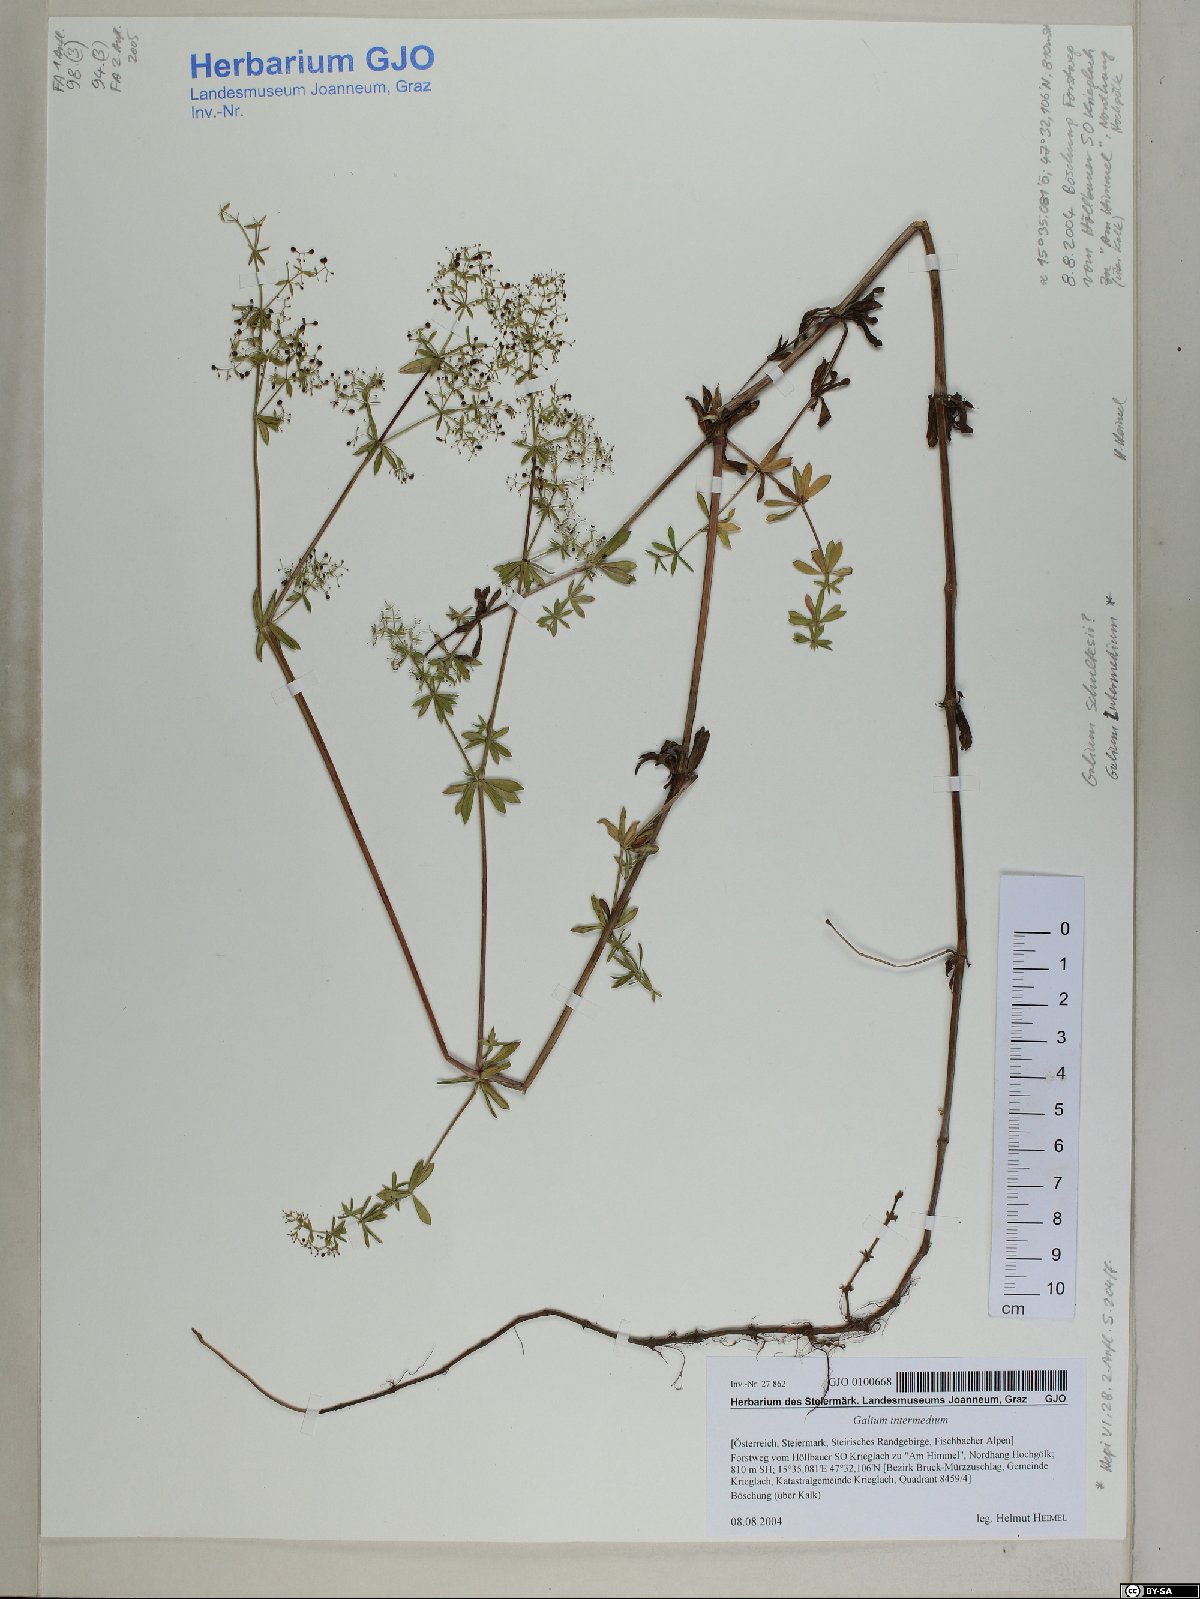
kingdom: Plantae
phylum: Tracheophyta
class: Magnoliopsida
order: Gentianales
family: Rubiaceae
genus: Galium
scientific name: Galium intermedium
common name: Bedstraw
